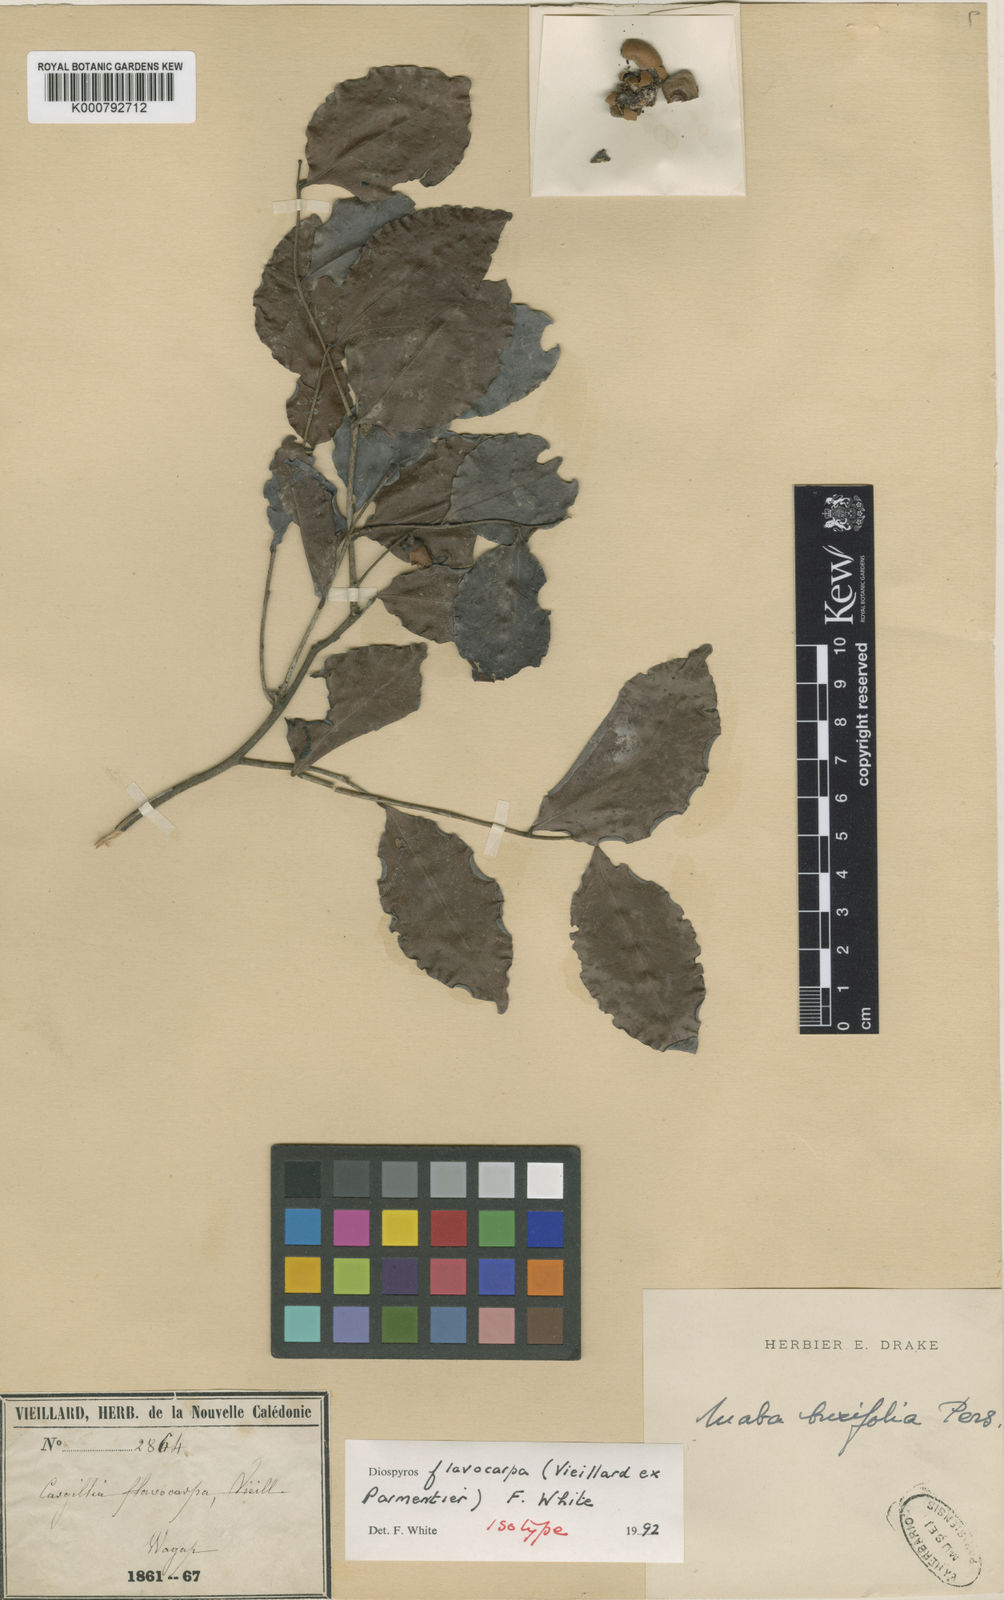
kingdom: Plantae
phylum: Tracheophyta
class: Magnoliopsida
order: Ericales
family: Ebenaceae
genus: Diospyros
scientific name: Diospyros flavocarpa
